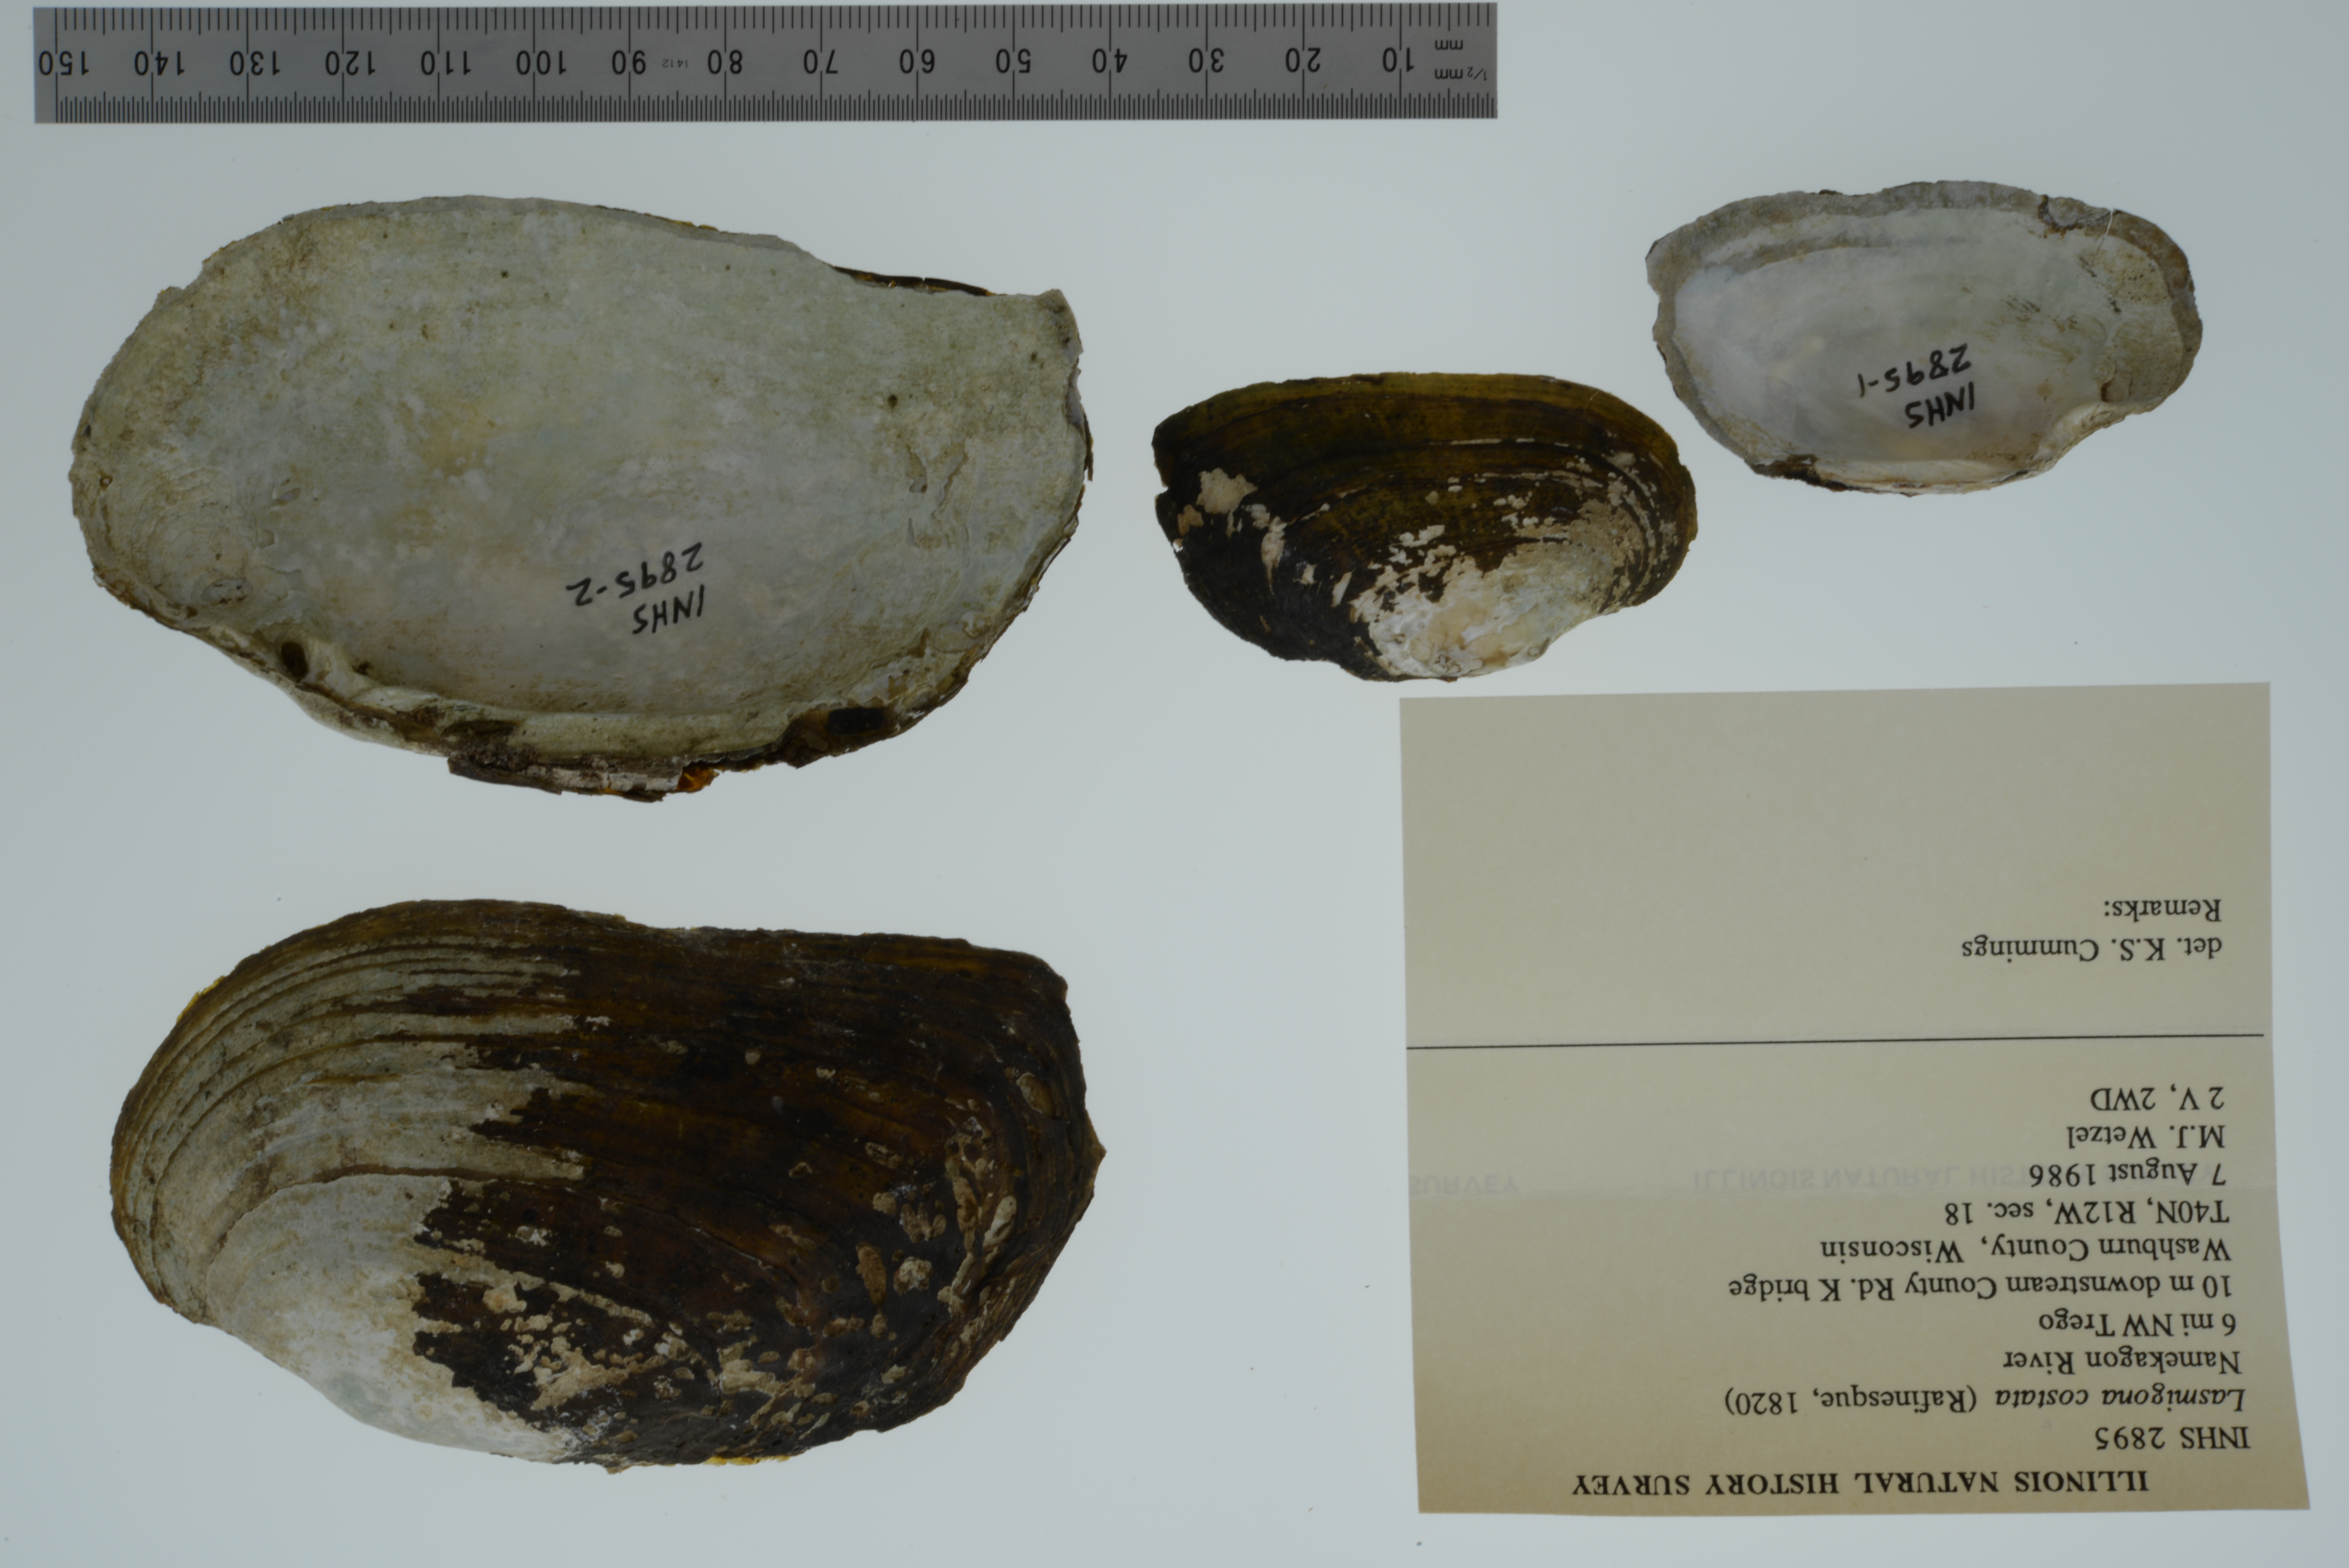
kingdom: Animalia
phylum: Mollusca
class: Bivalvia
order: Unionida
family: Unionidae
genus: Lasmigona
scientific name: Lasmigona costata
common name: Flutedshell
